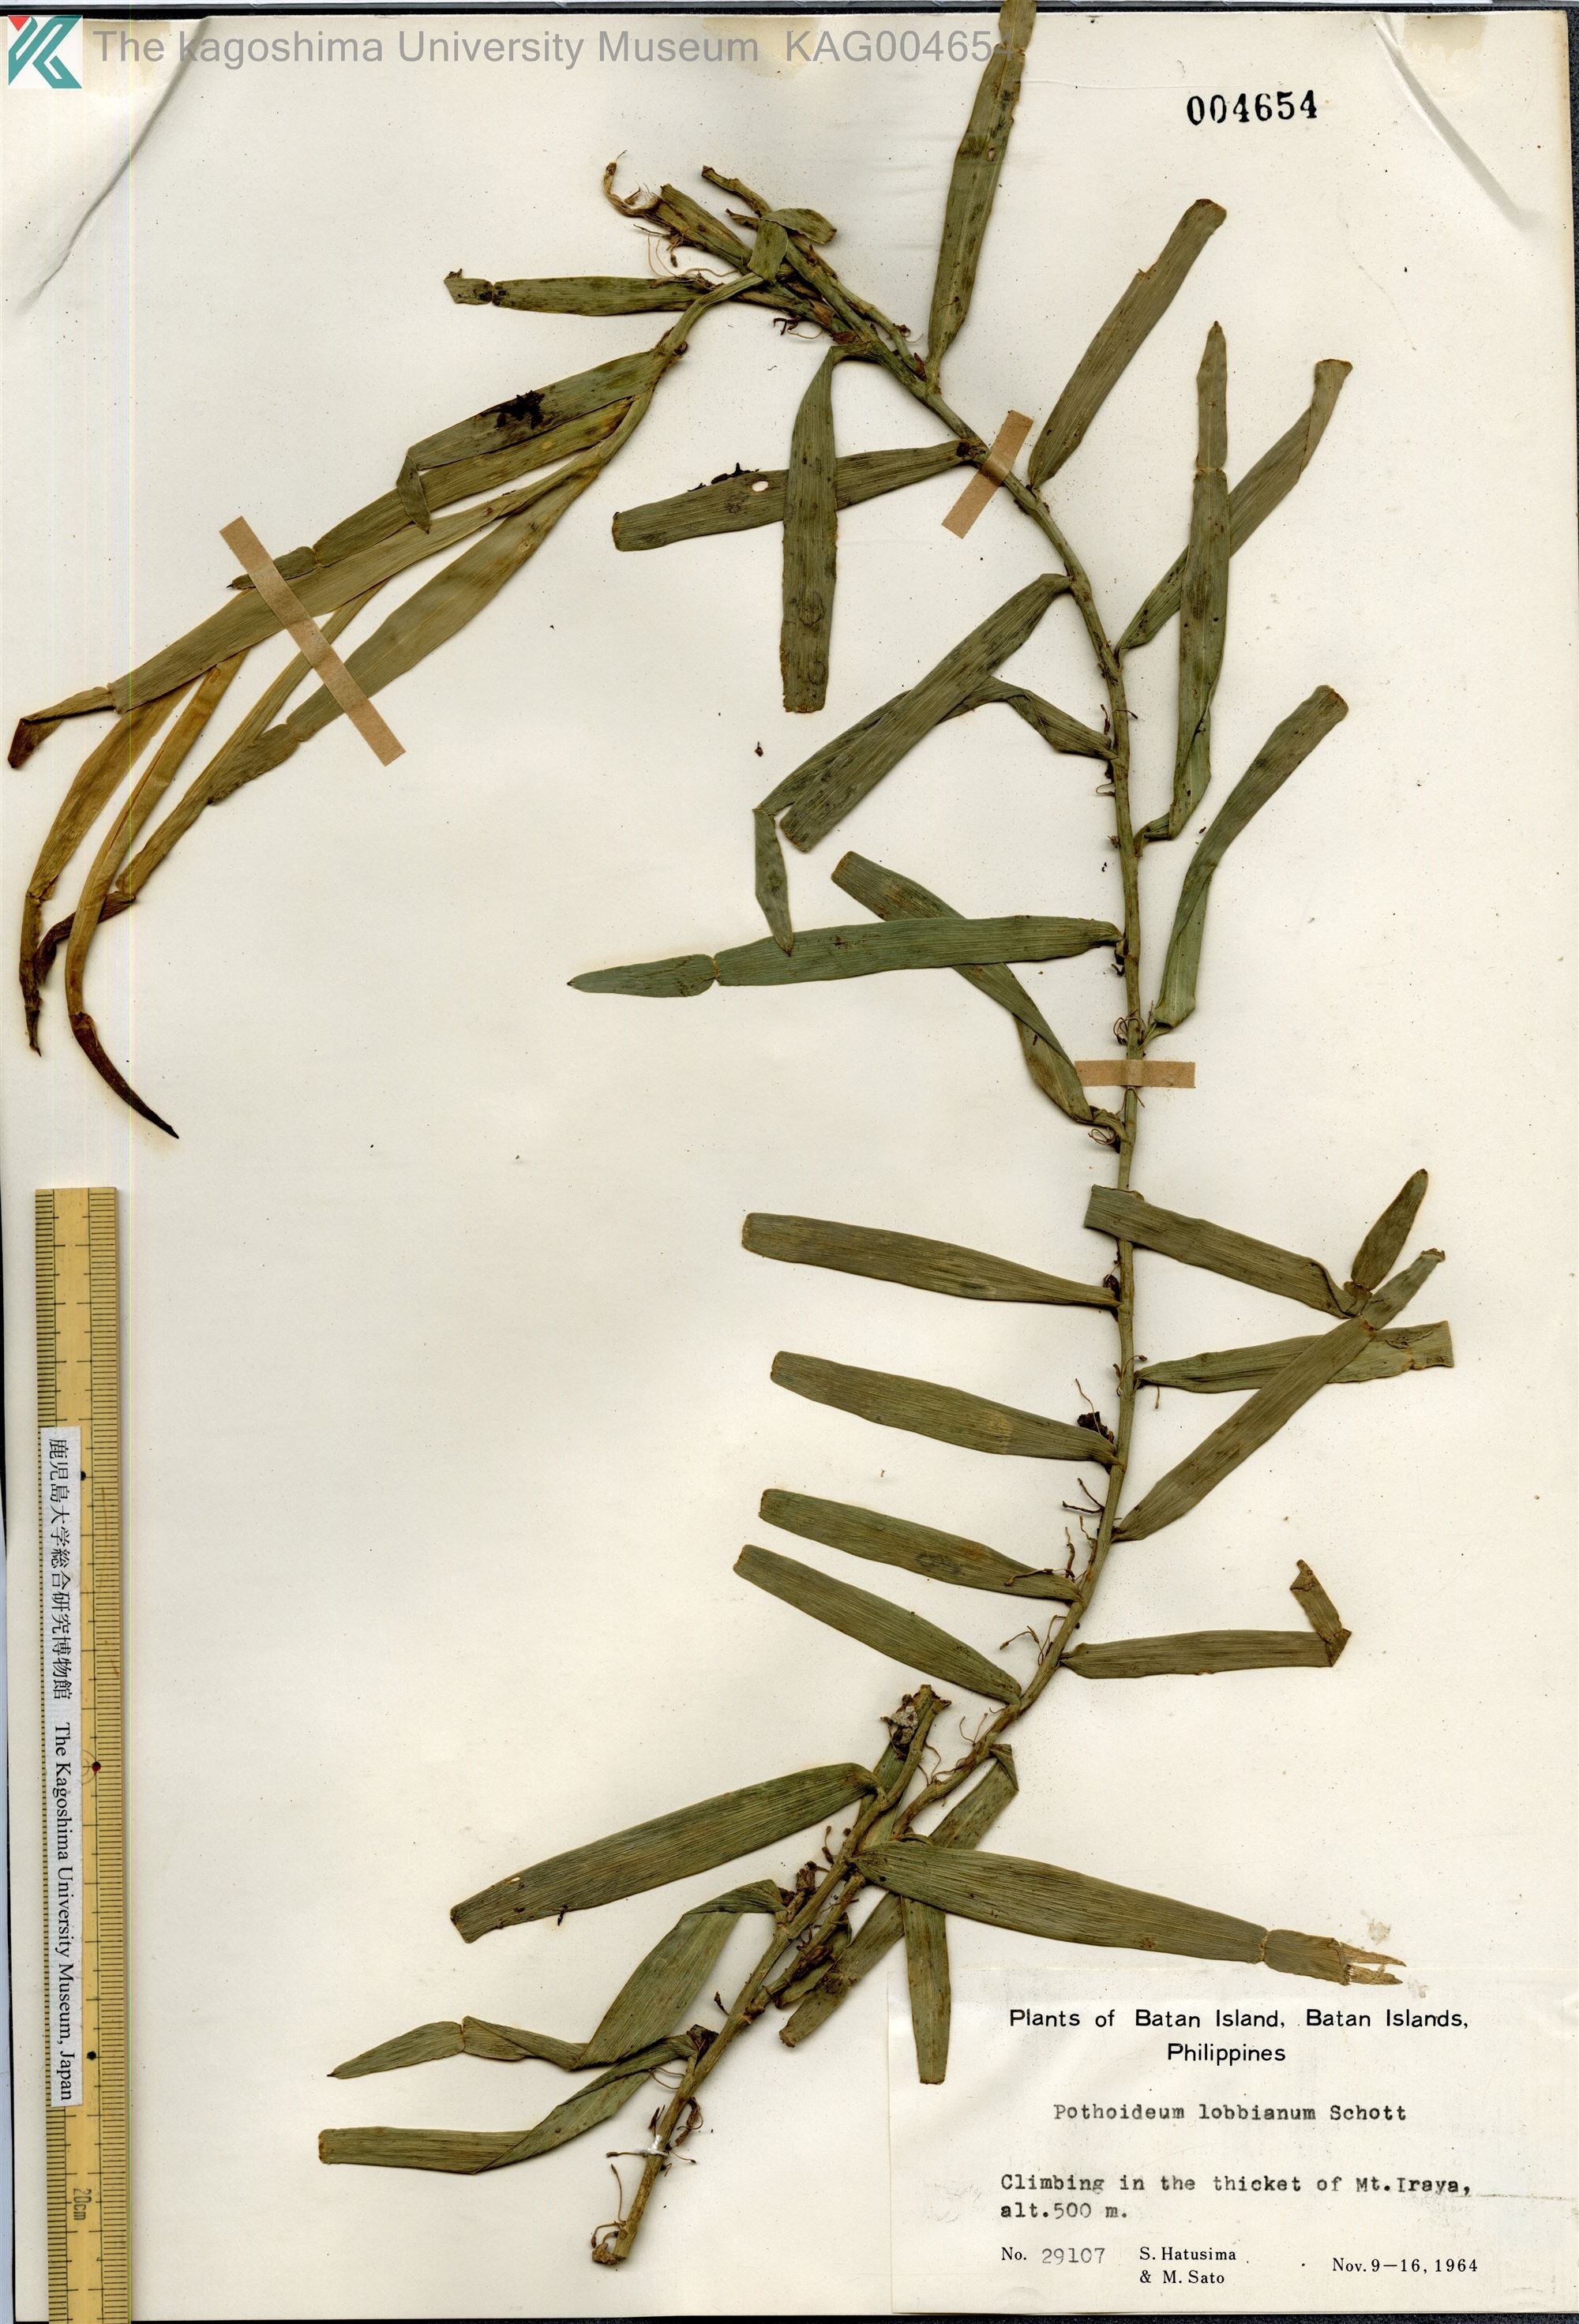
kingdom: Plantae
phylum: Tracheophyta
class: Liliopsida
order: Alismatales
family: Araceae
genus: Pothoidium
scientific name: Pothoidium lobbianum
